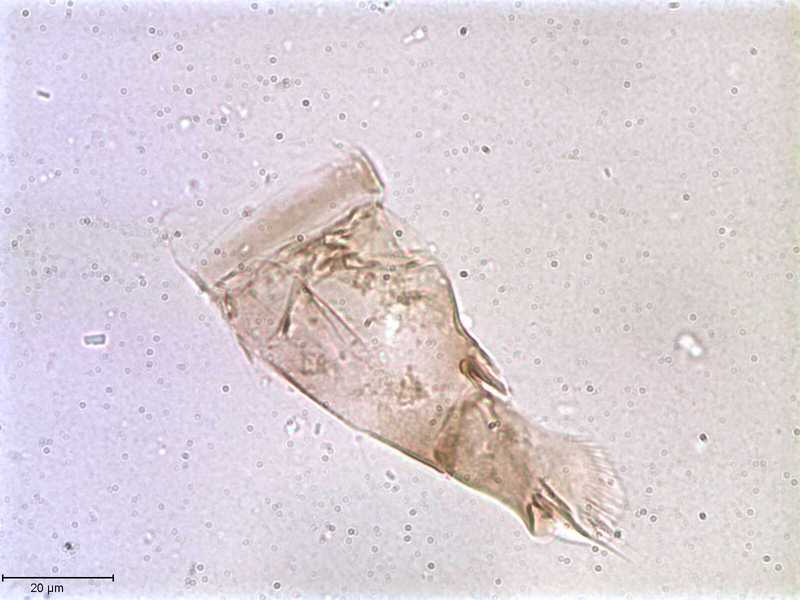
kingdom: Animalia
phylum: Arthropoda
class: Arachnida
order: Mesostigmata
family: Halarachnidae
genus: Orthohalarachne
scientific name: Orthohalarachne letalis
